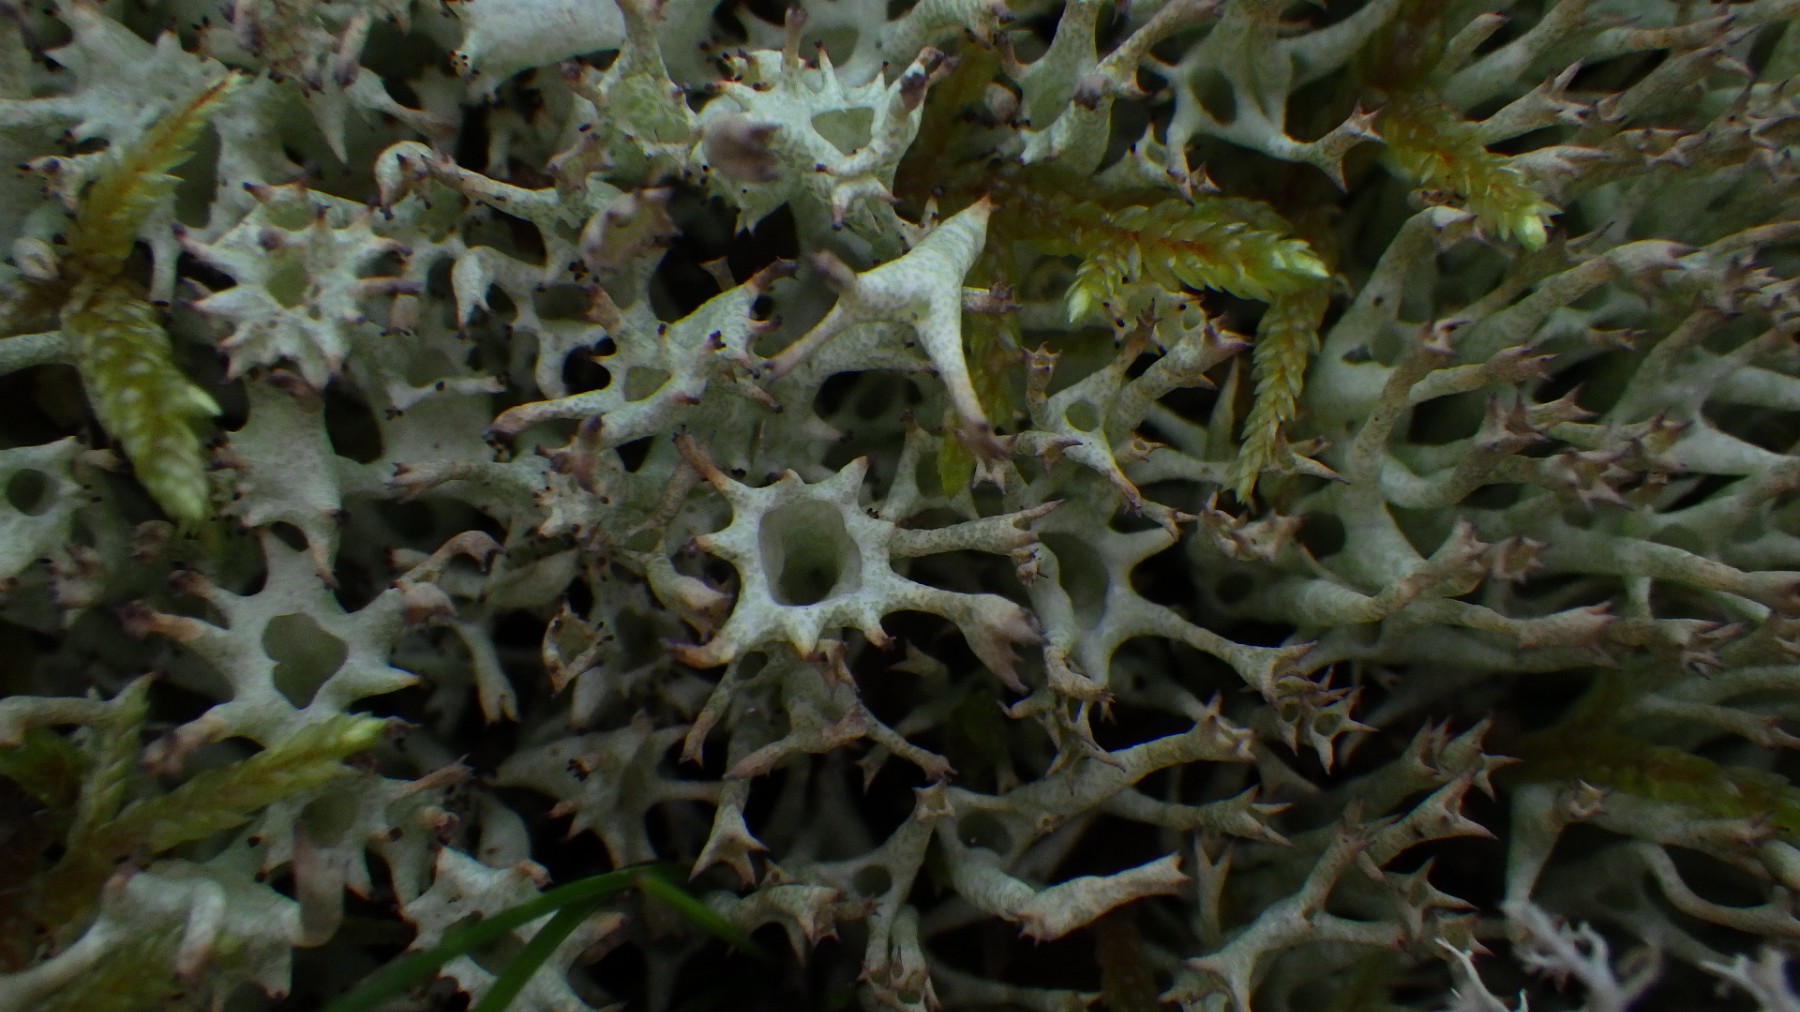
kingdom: Fungi
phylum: Ascomycota
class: Lecanoromycetes
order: Lecanorales
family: Cladoniaceae
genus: Cladonia
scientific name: Cladonia uncialis
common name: pigget bægerlav
